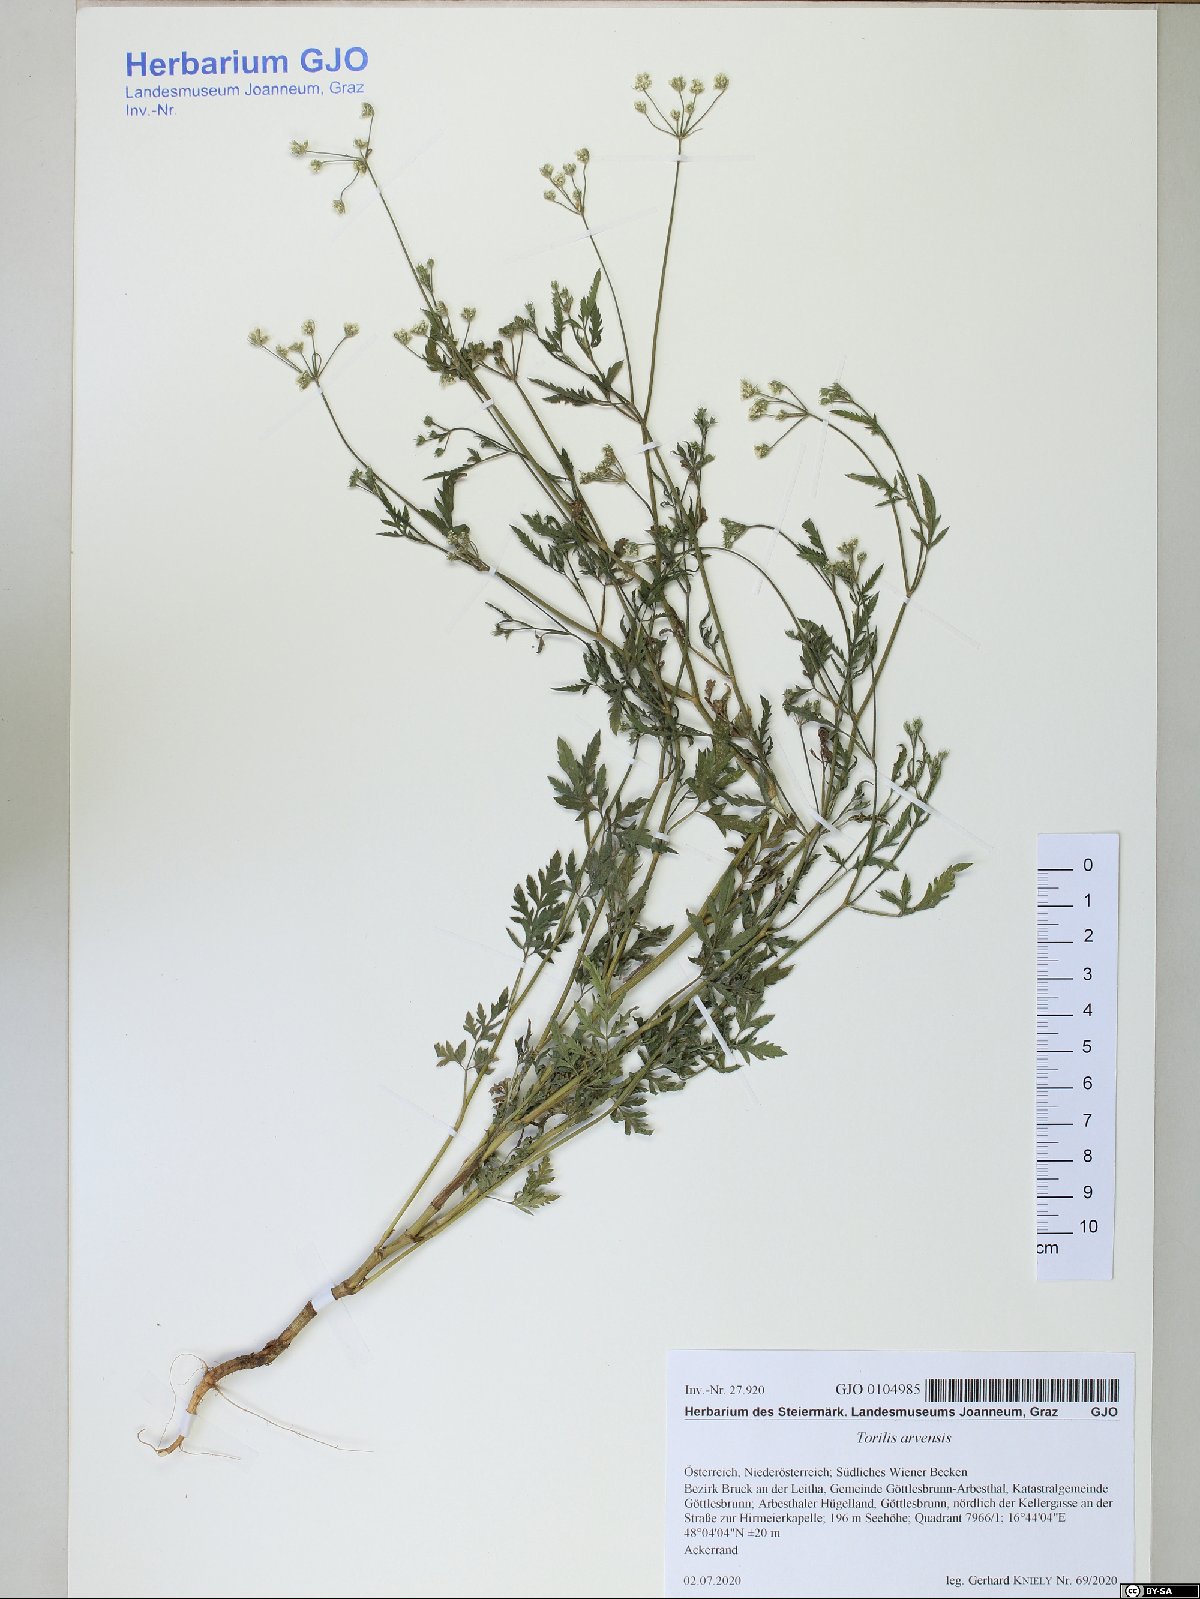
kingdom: Plantae
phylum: Tracheophyta
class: Magnoliopsida
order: Apiales
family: Apiaceae
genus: Torilis
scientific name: Torilis arvensis
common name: Spreading hedge-parsley
